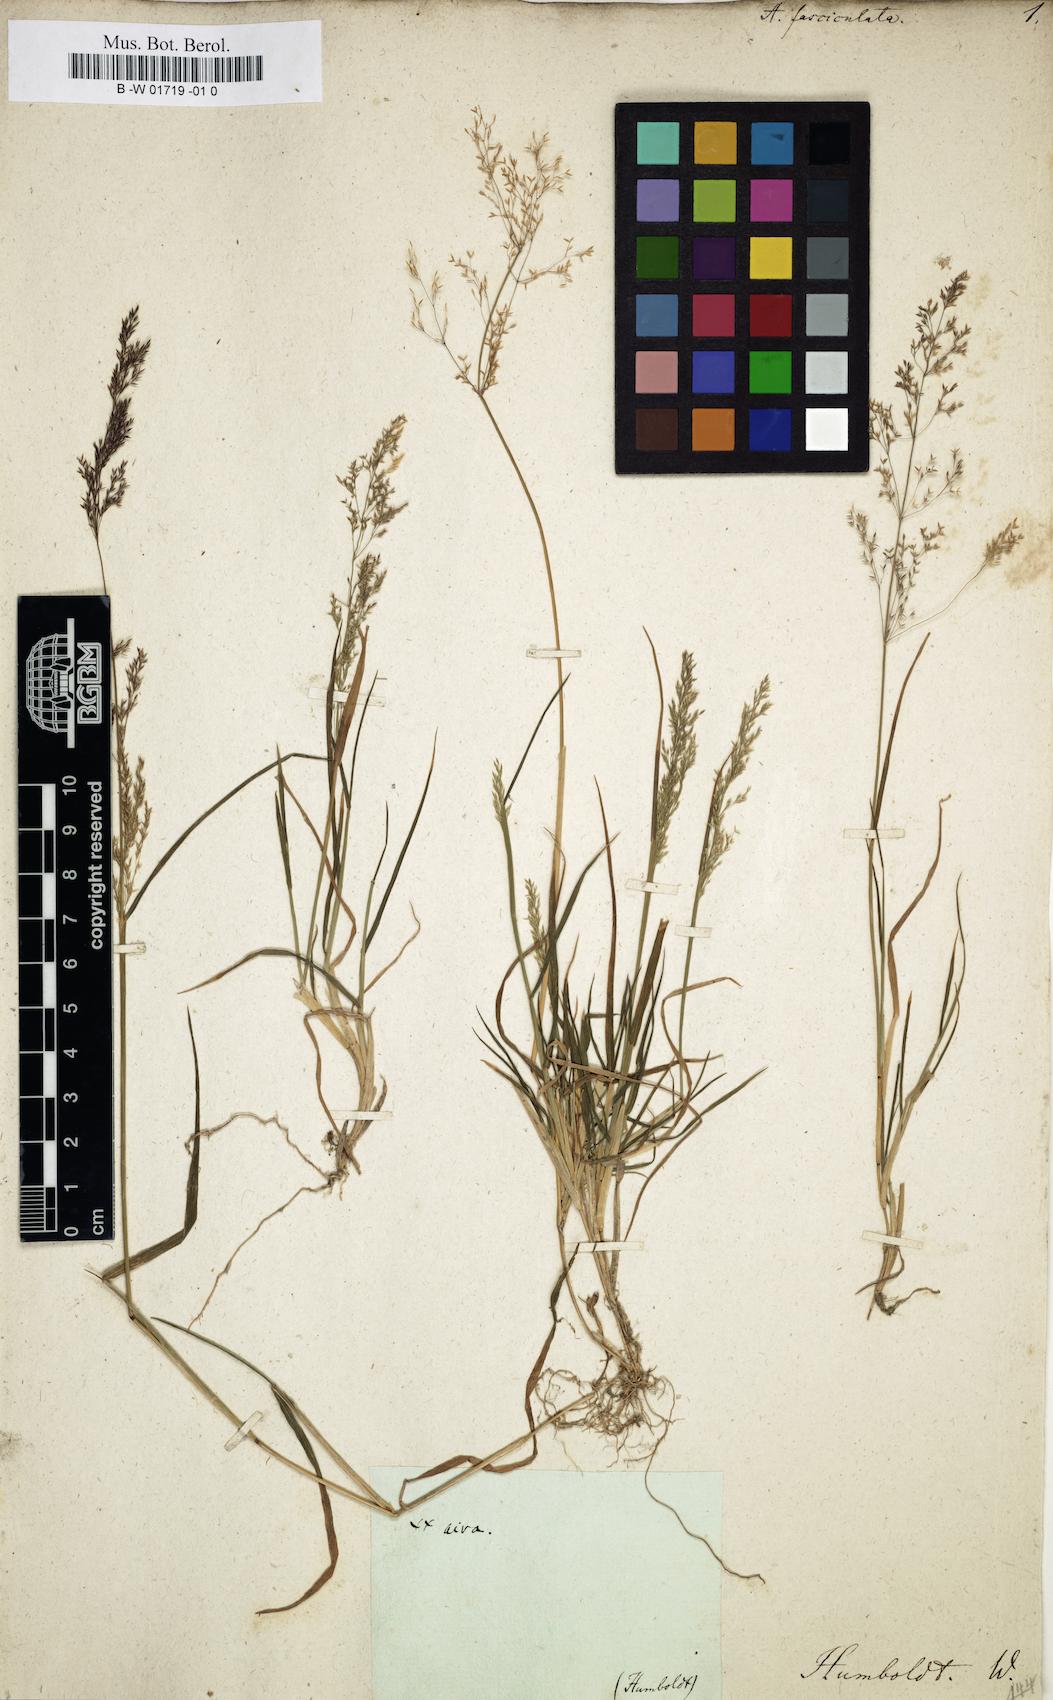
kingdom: Plantae
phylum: Tracheophyta
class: Liliopsida
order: Poales
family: Poaceae
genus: Agrostis
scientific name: Agrostis perennans
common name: Autumn bent
